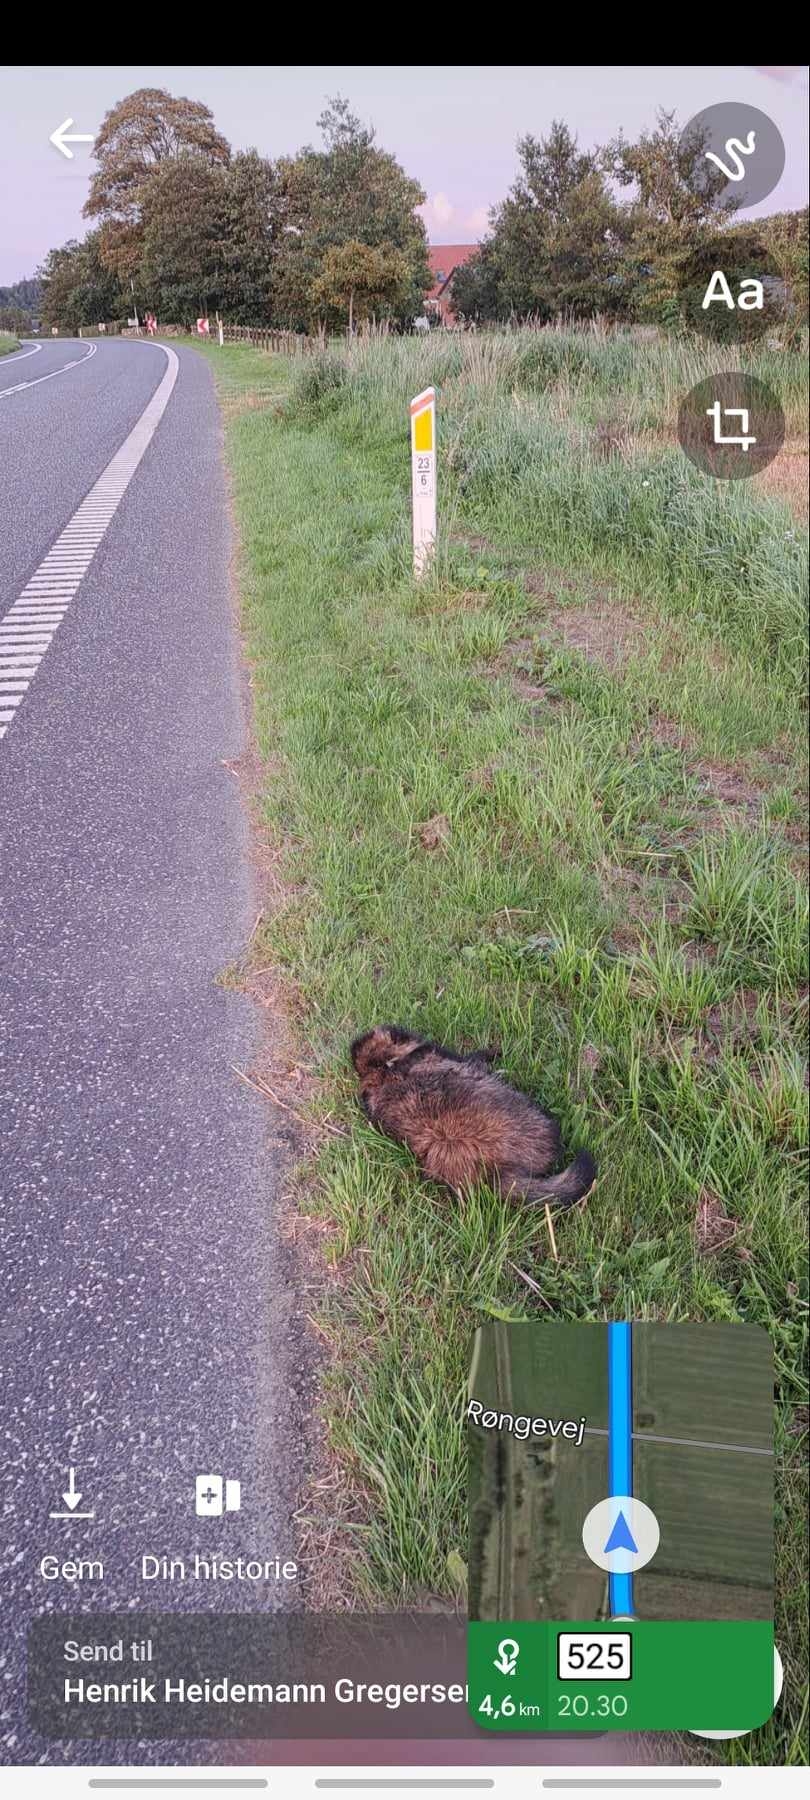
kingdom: Animalia
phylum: Chordata
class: Mammalia
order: Carnivora
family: Canidae
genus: Nyctereutes
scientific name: Nyctereutes procyonoides
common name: Mårhund
